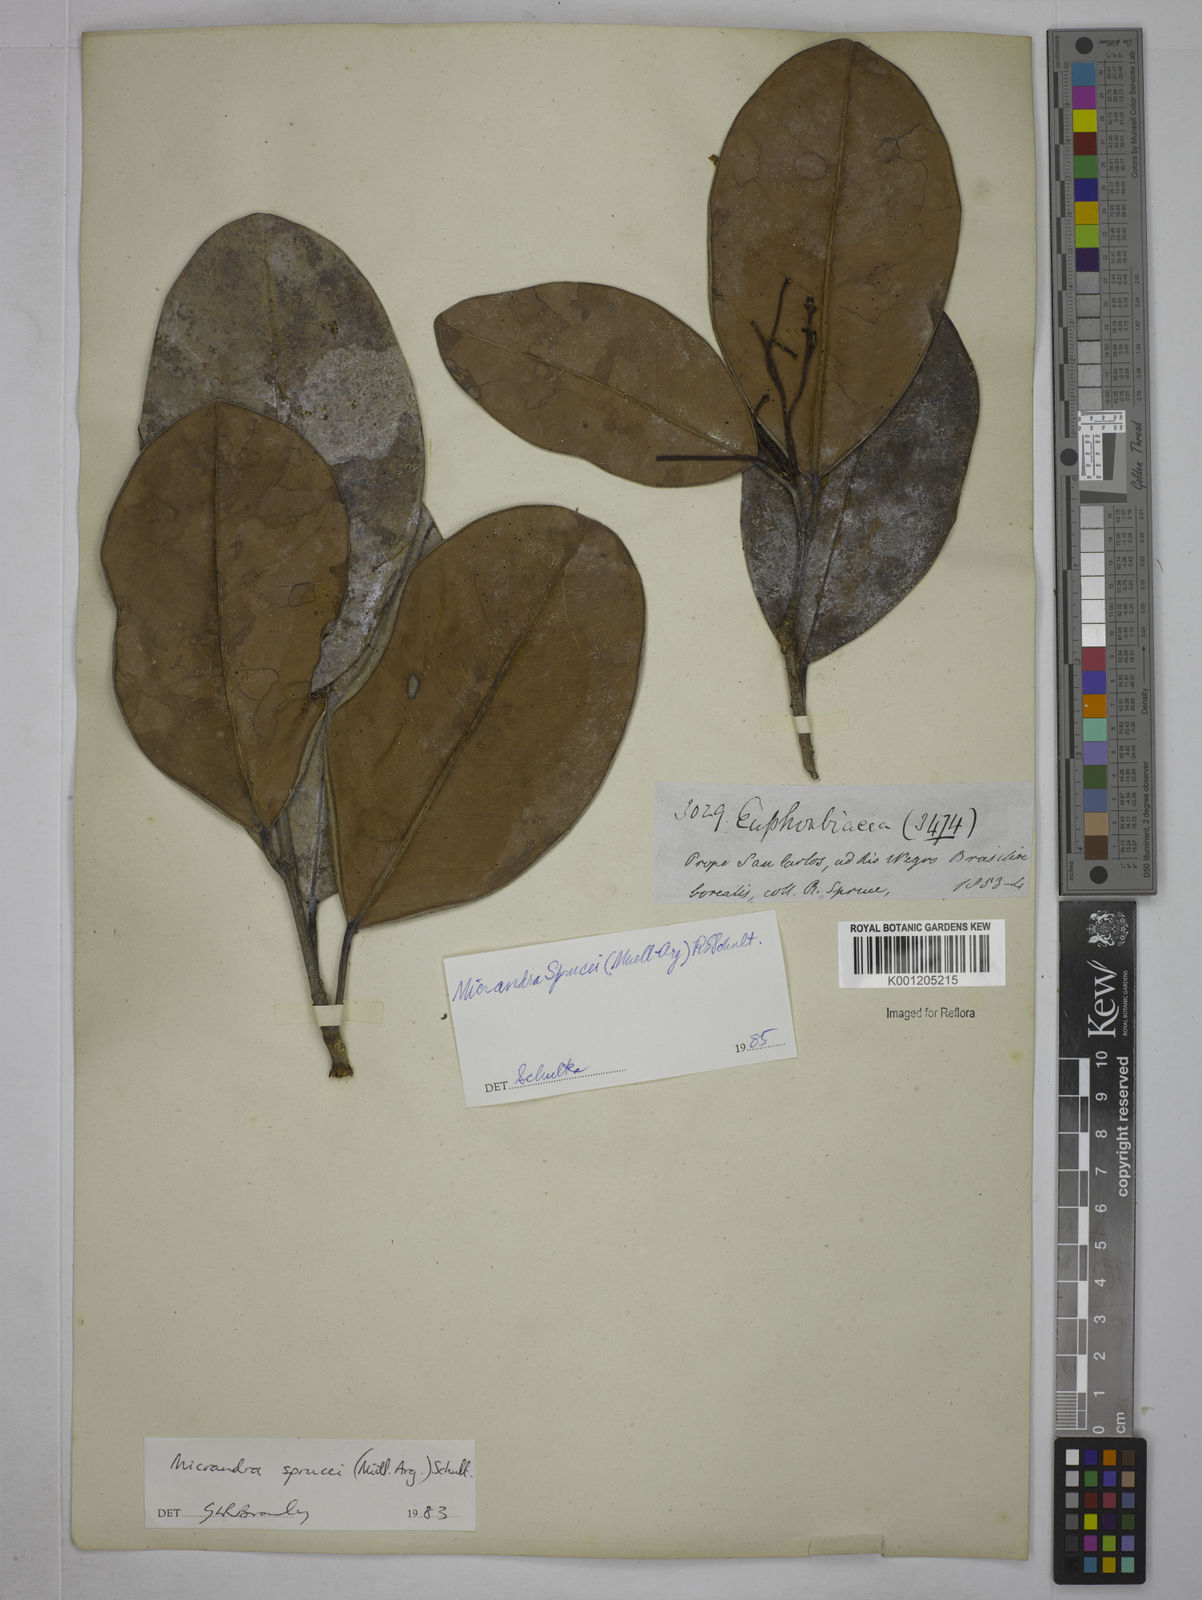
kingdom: Plantae
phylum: Tracheophyta
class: Magnoliopsida
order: Malpighiales
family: Euphorbiaceae
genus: Micrandra
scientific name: Micrandra
